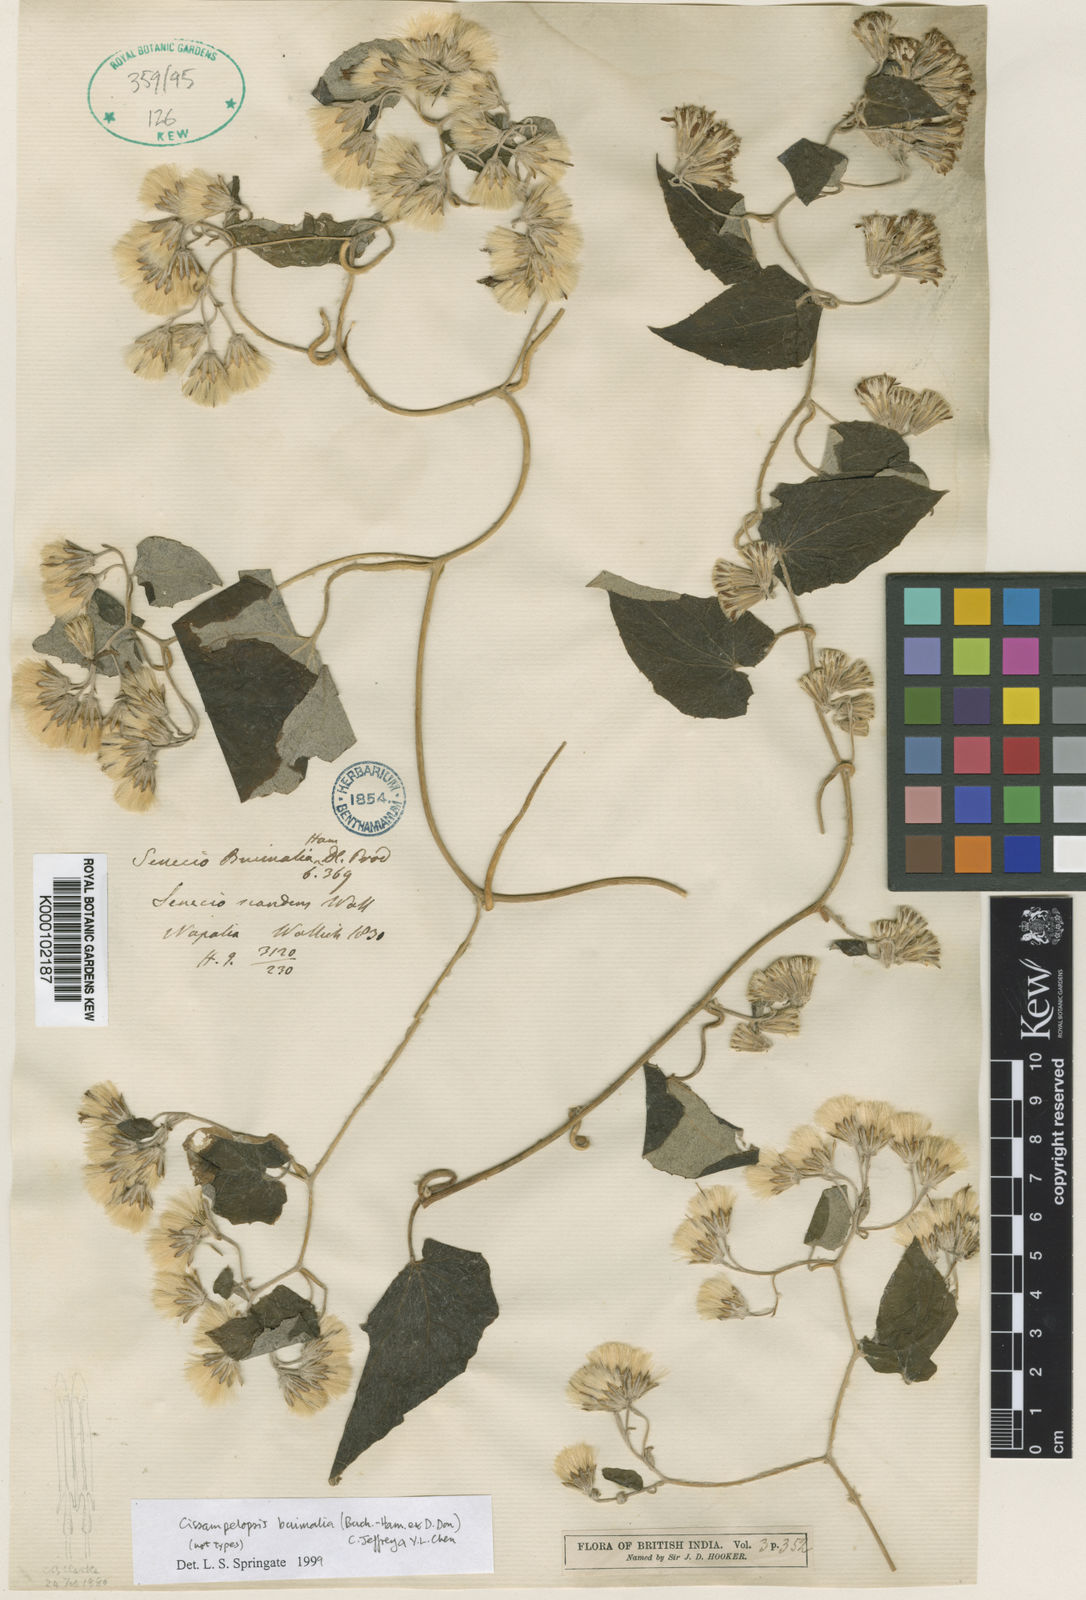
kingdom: Plantae
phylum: Tracheophyta
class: Magnoliopsida
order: Asterales
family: Asteraceae
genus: Cissampelopsis
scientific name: Cissampelopsis buimalia
